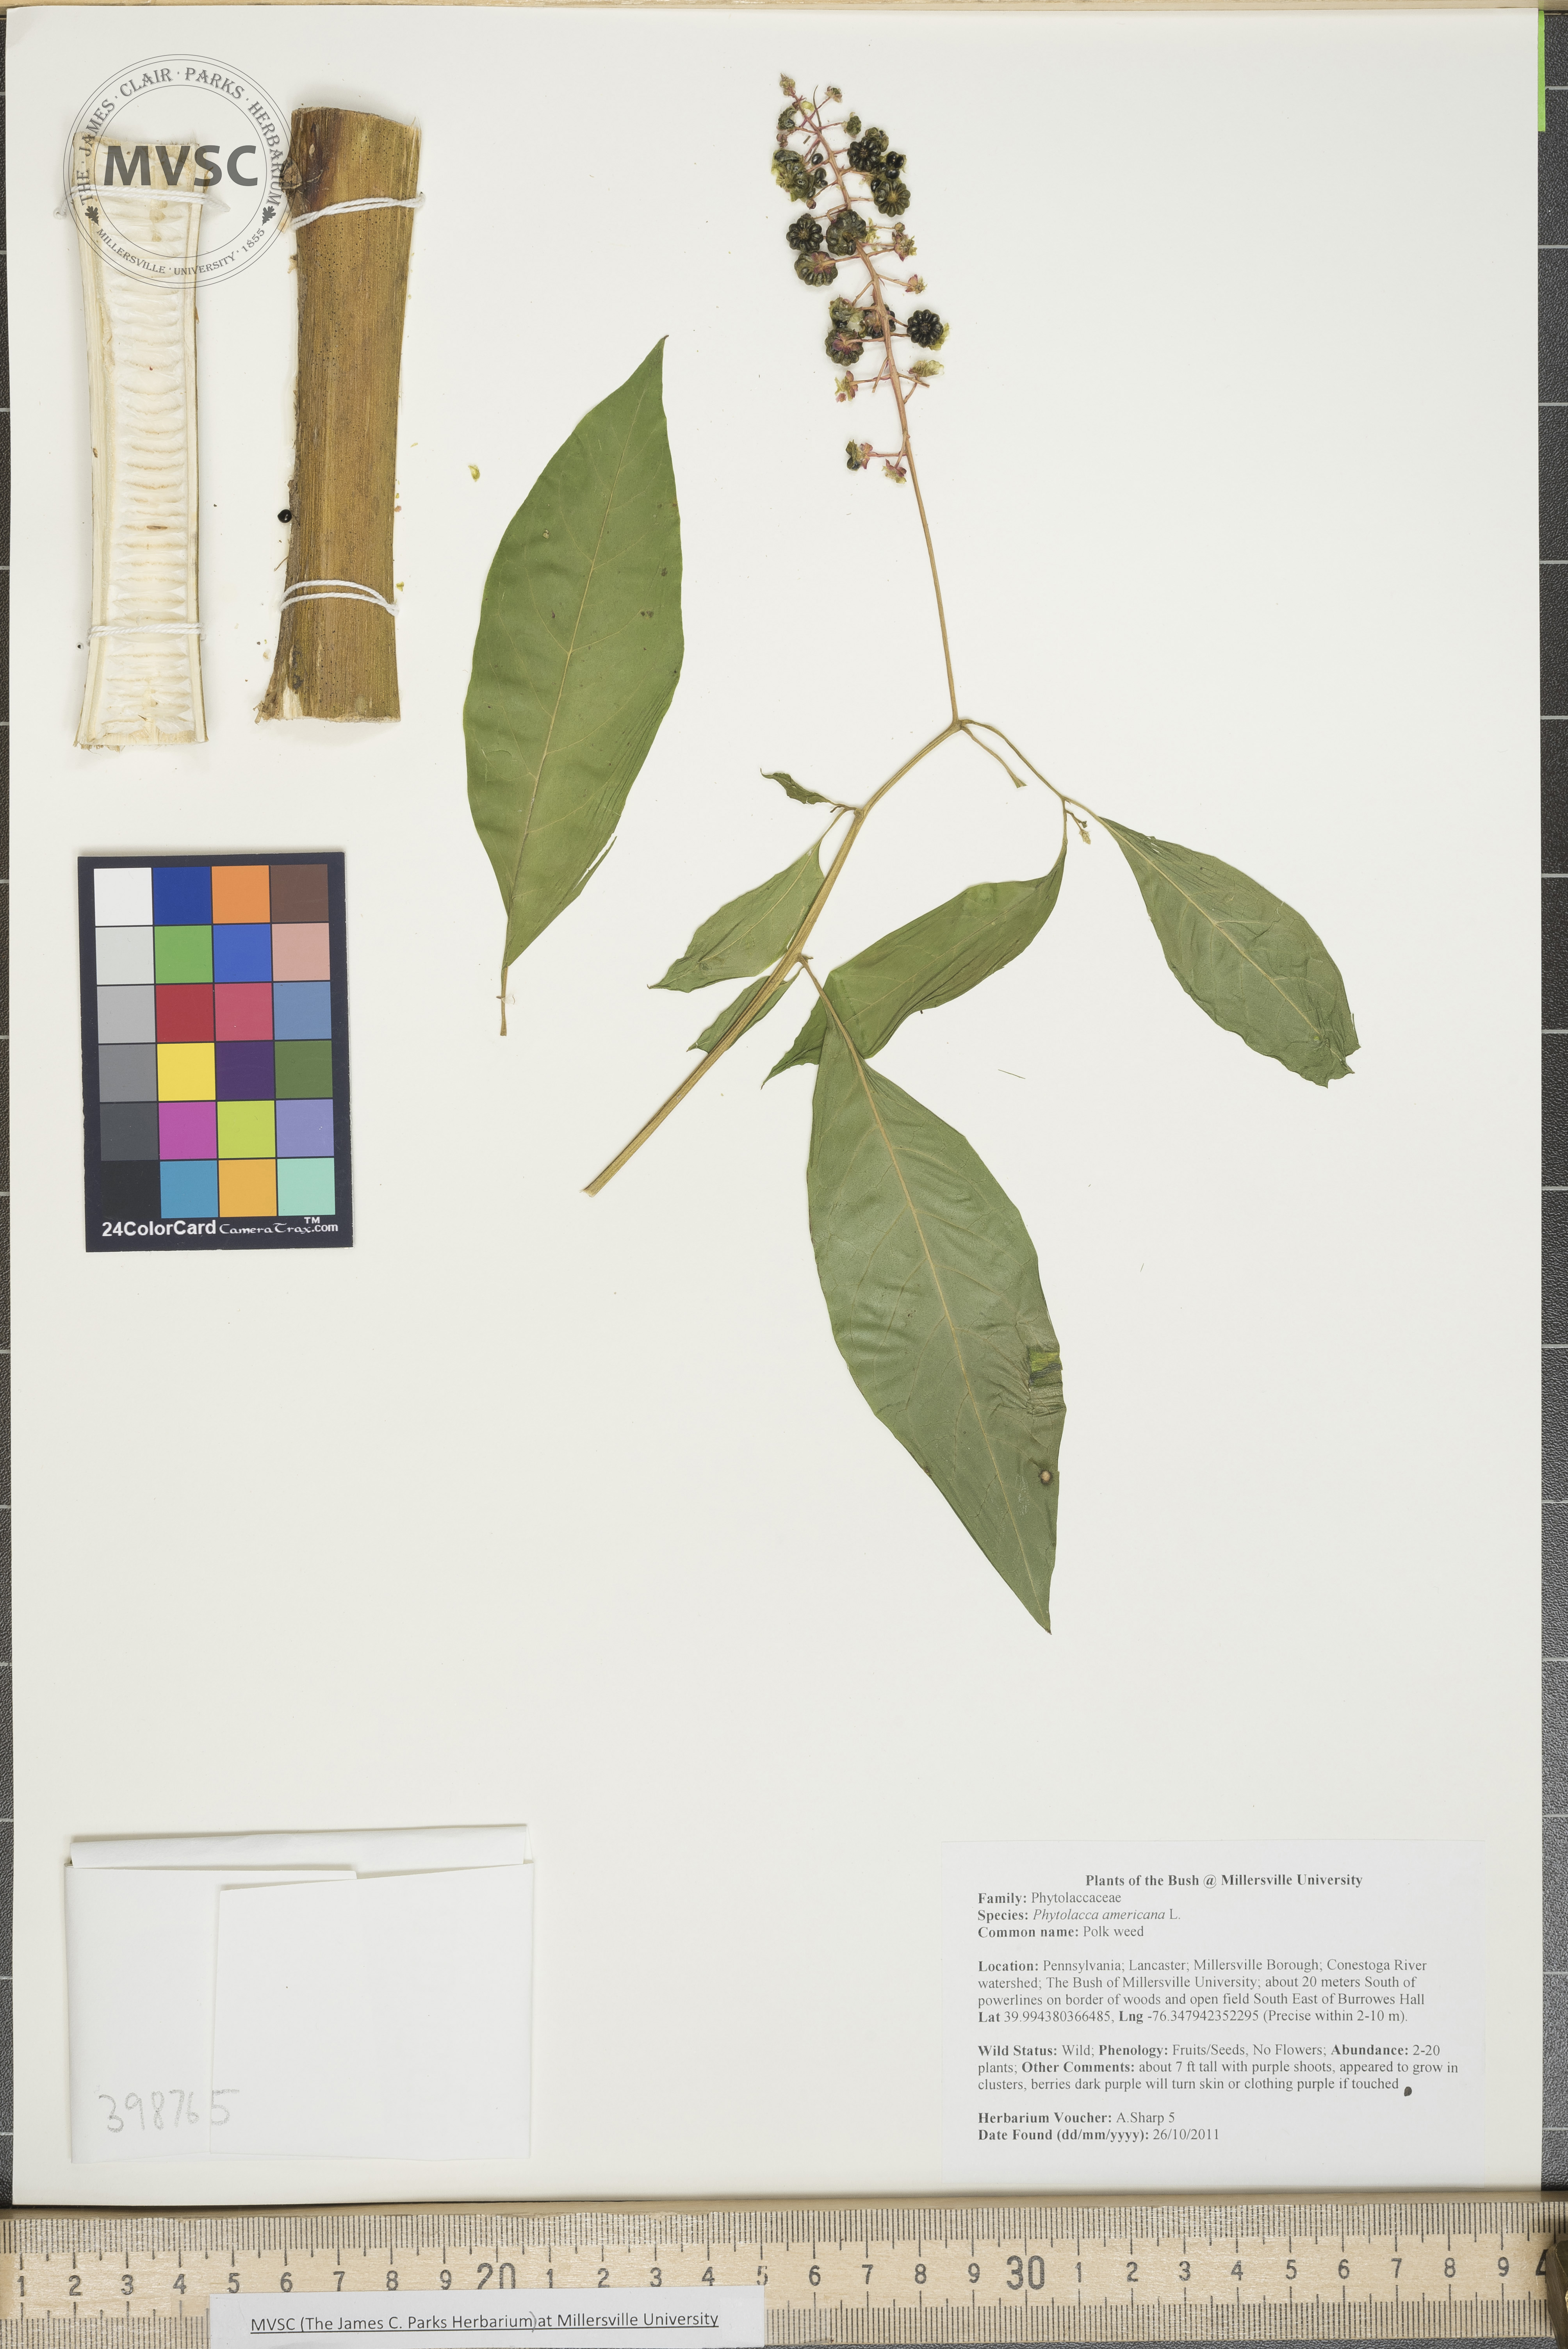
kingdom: Plantae
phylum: Tracheophyta
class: Magnoliopsida
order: Caryophyllales
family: Phytolaccaceae
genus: Phytolacca
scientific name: Phytolacca americana
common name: Pokeweed
